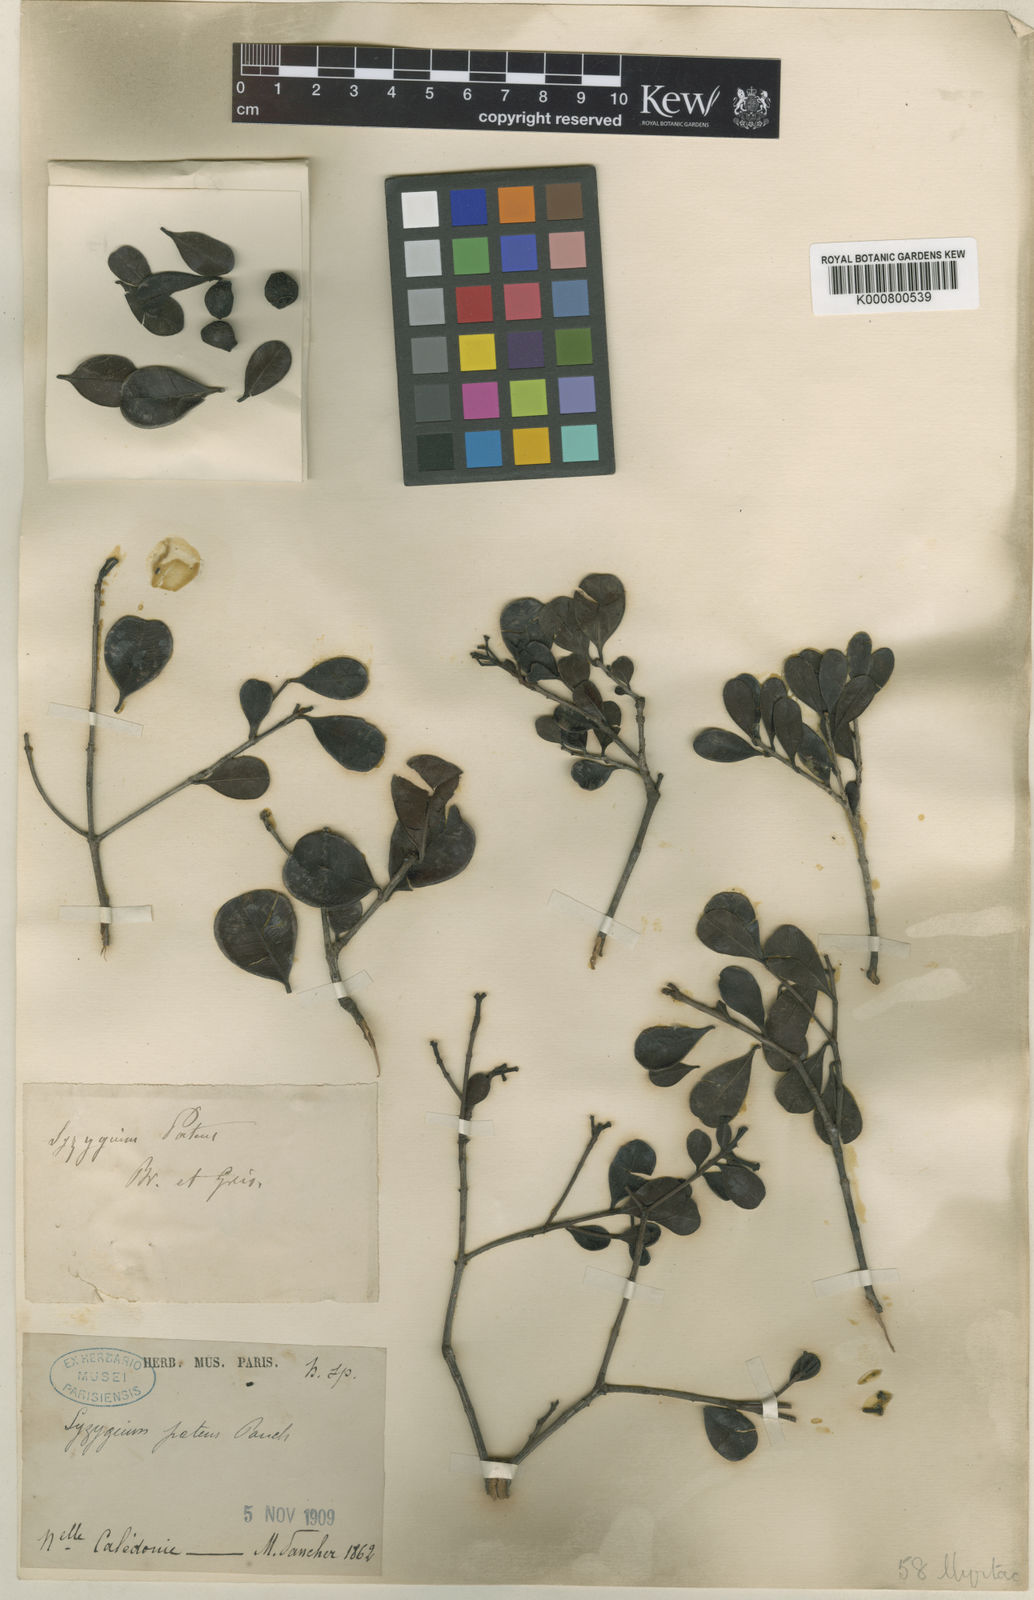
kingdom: Plantae
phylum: Tracheophyta
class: Magnoliopsida
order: Myrtales
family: Myrtaceae
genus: Syzygium
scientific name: Syzygium ngoyense
